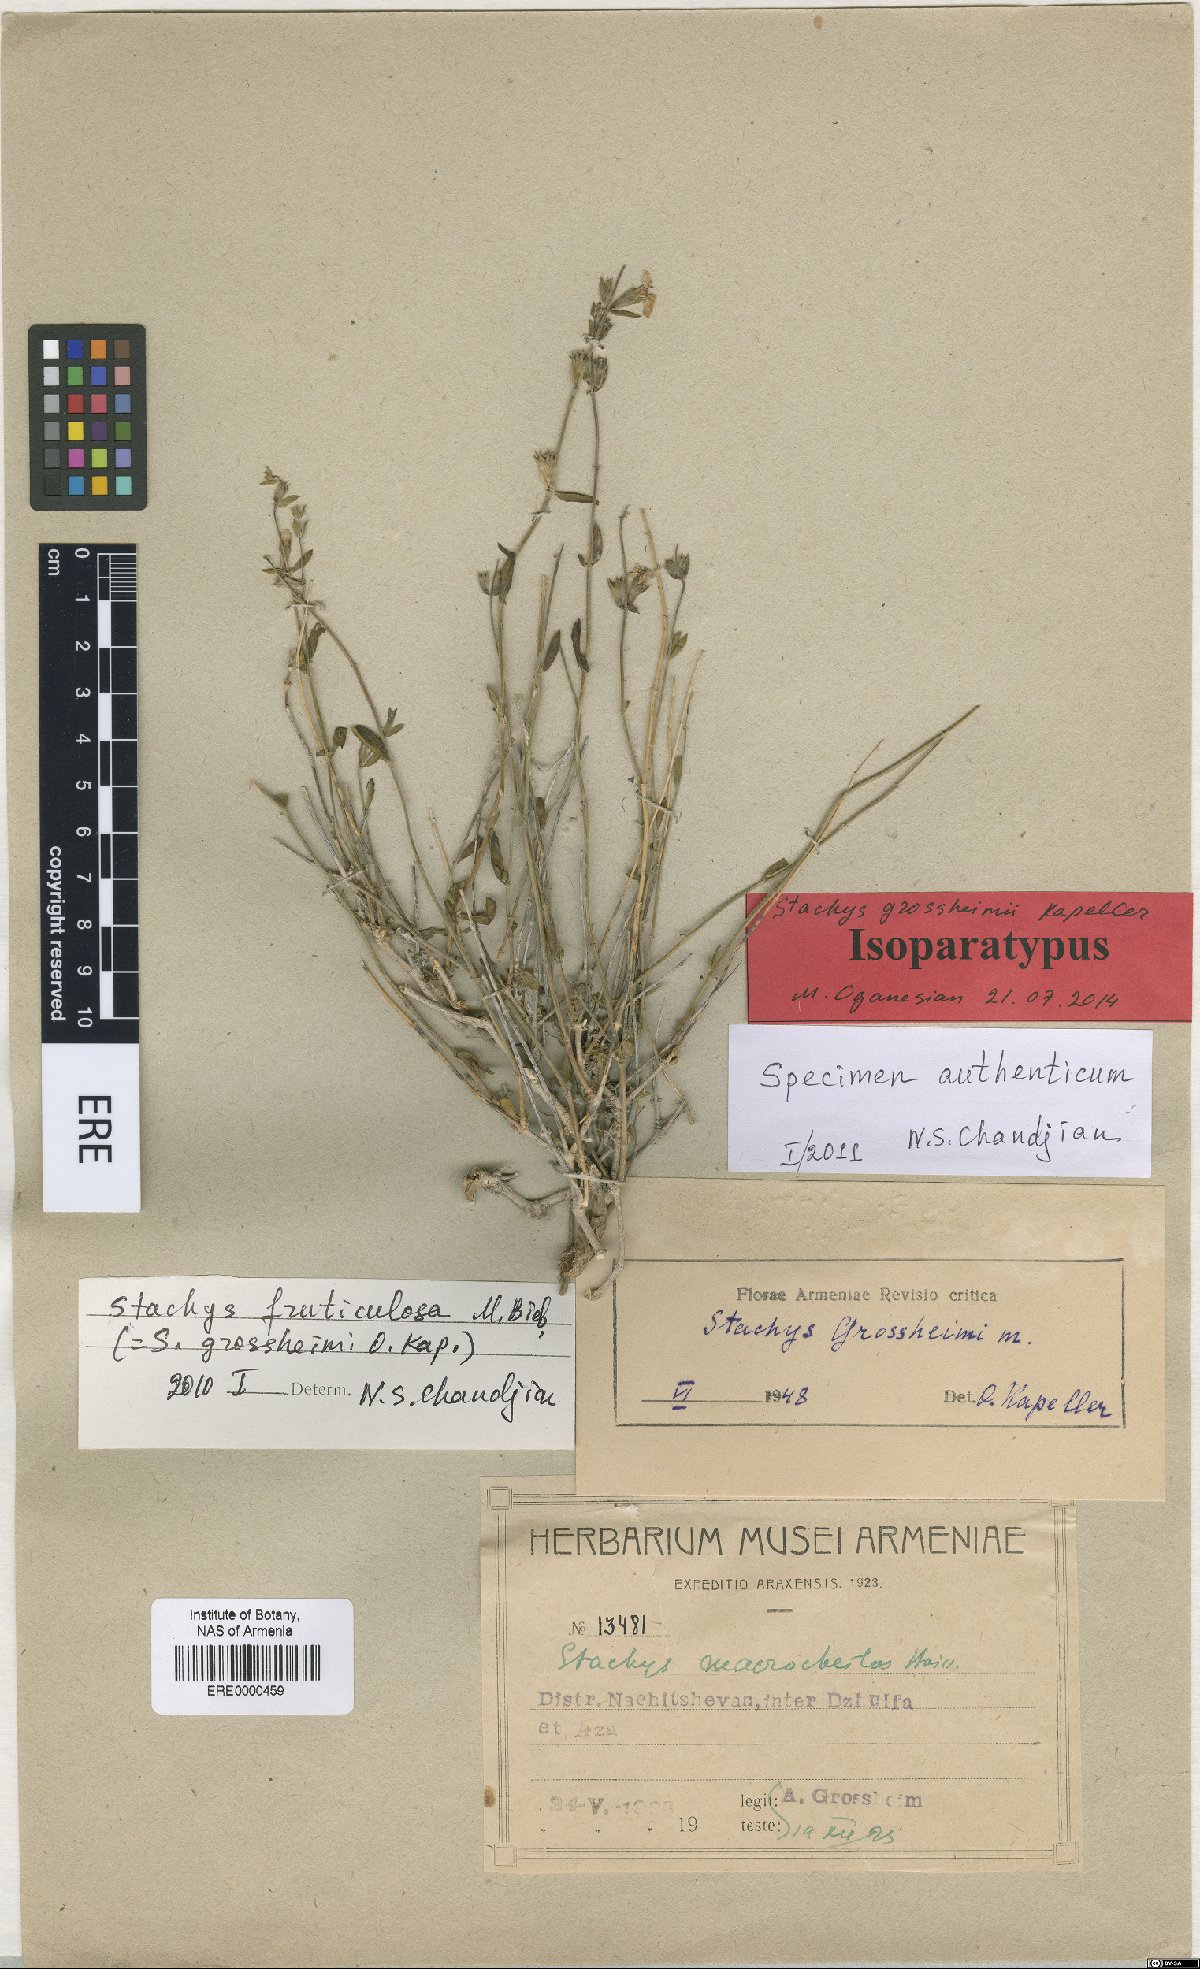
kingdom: Plantae
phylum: Tracheophyta
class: Magnoliopsida
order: Lamiales
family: Lamiaceae
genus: Stachys
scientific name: Stachys fruticulosa
